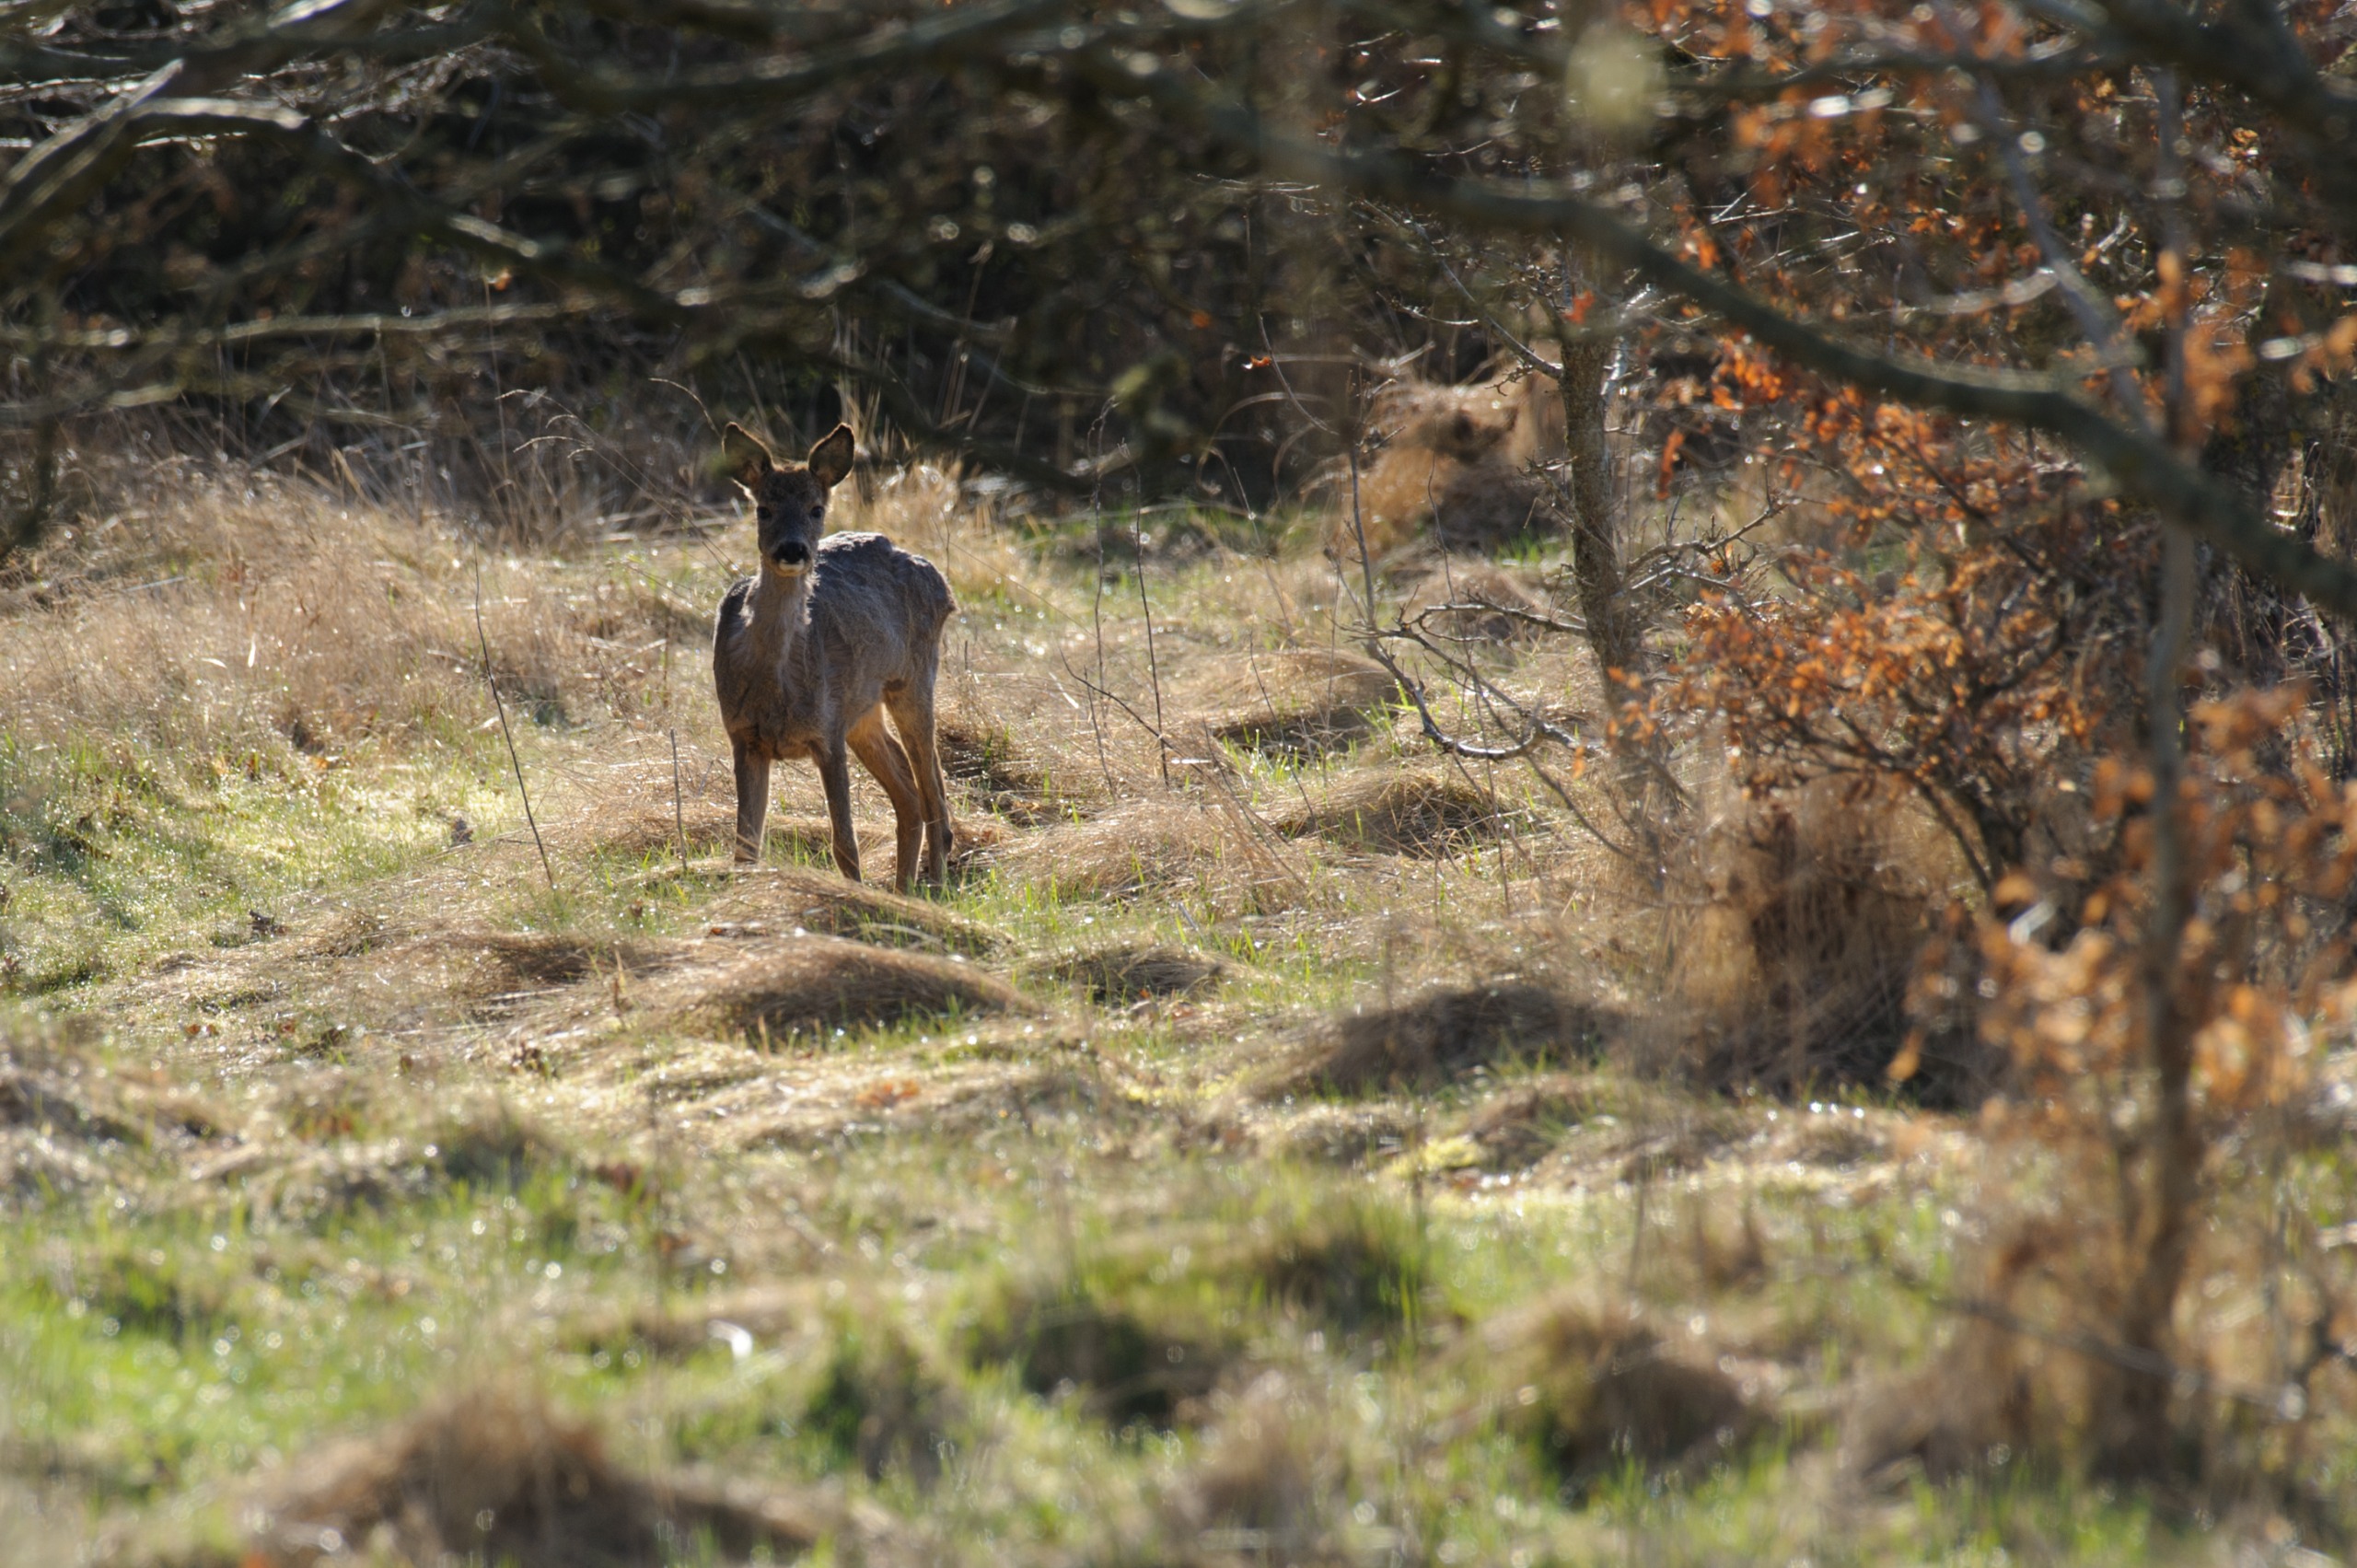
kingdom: Animalia
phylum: Chordata
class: Mammalia
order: Artiodactyla
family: Cervidae
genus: Capreolus
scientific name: Capreolus capreolus
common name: Rådyr
